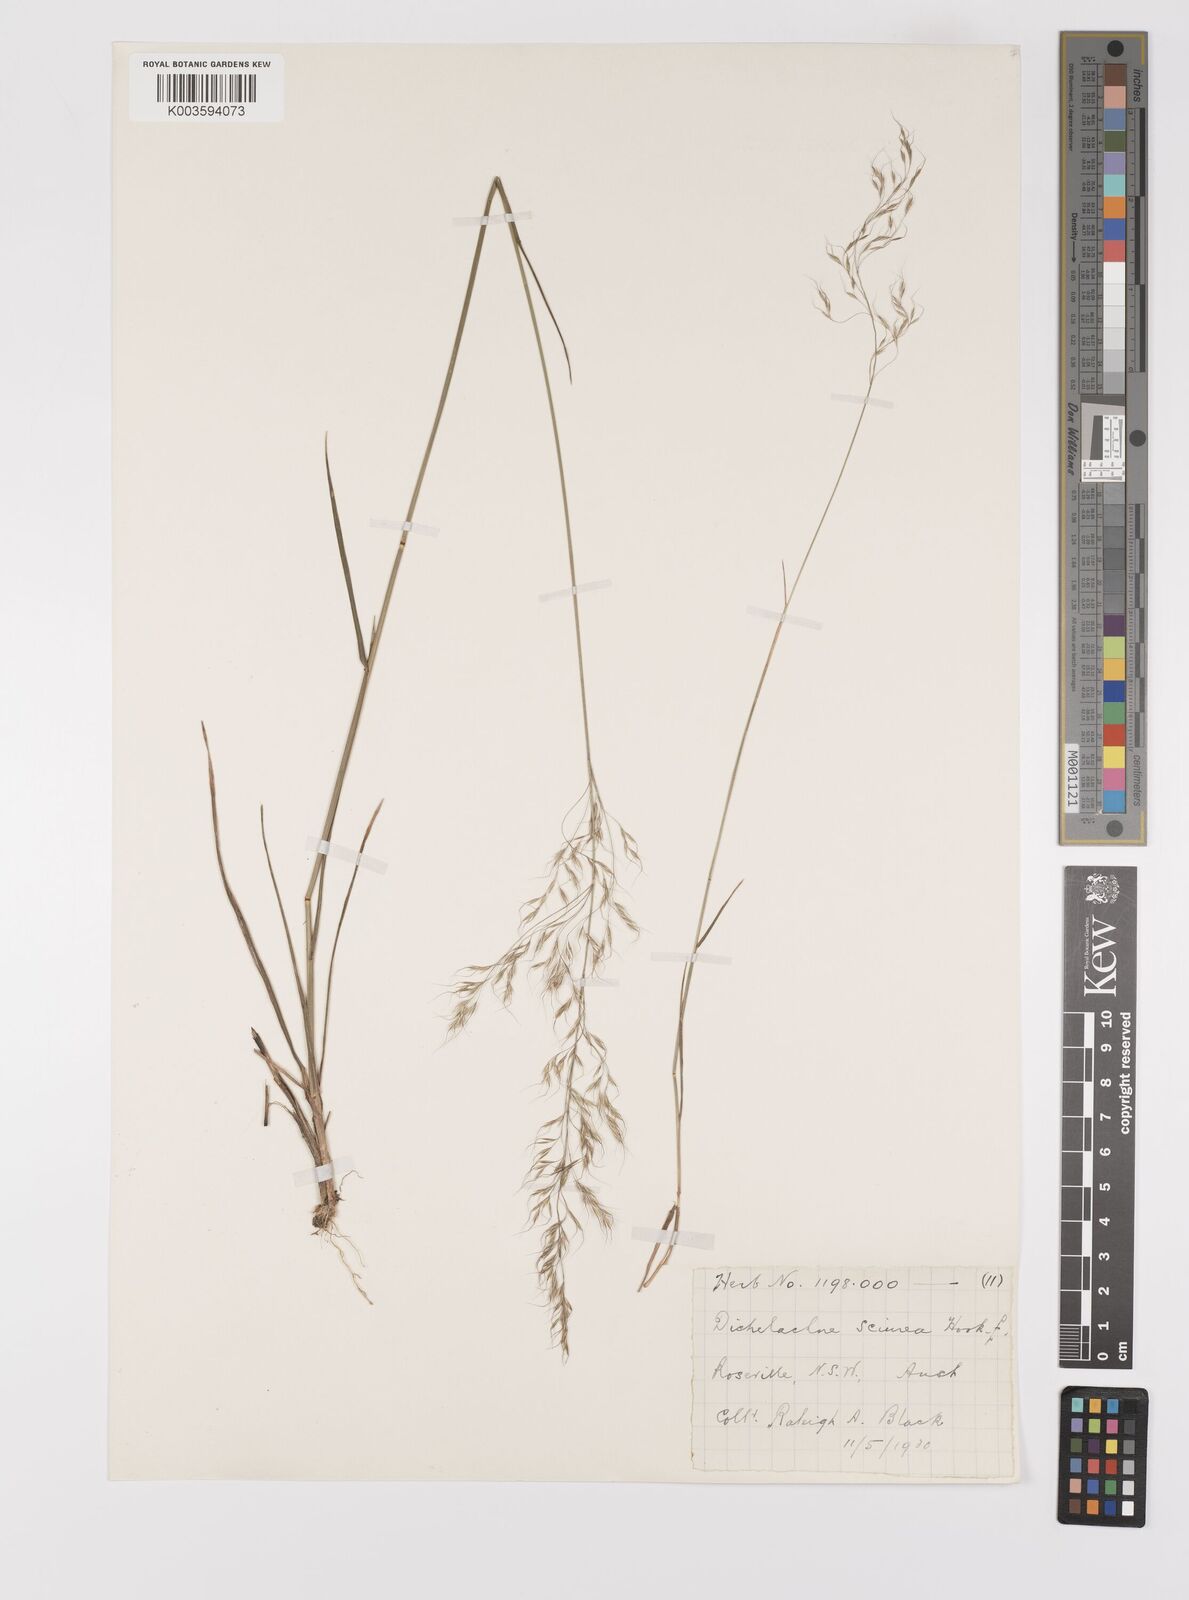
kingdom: Plantae
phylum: Tracheophyta
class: Liliopsida
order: Poales
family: Poaceae
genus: Dichelachne
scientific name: Dichelachne rara
